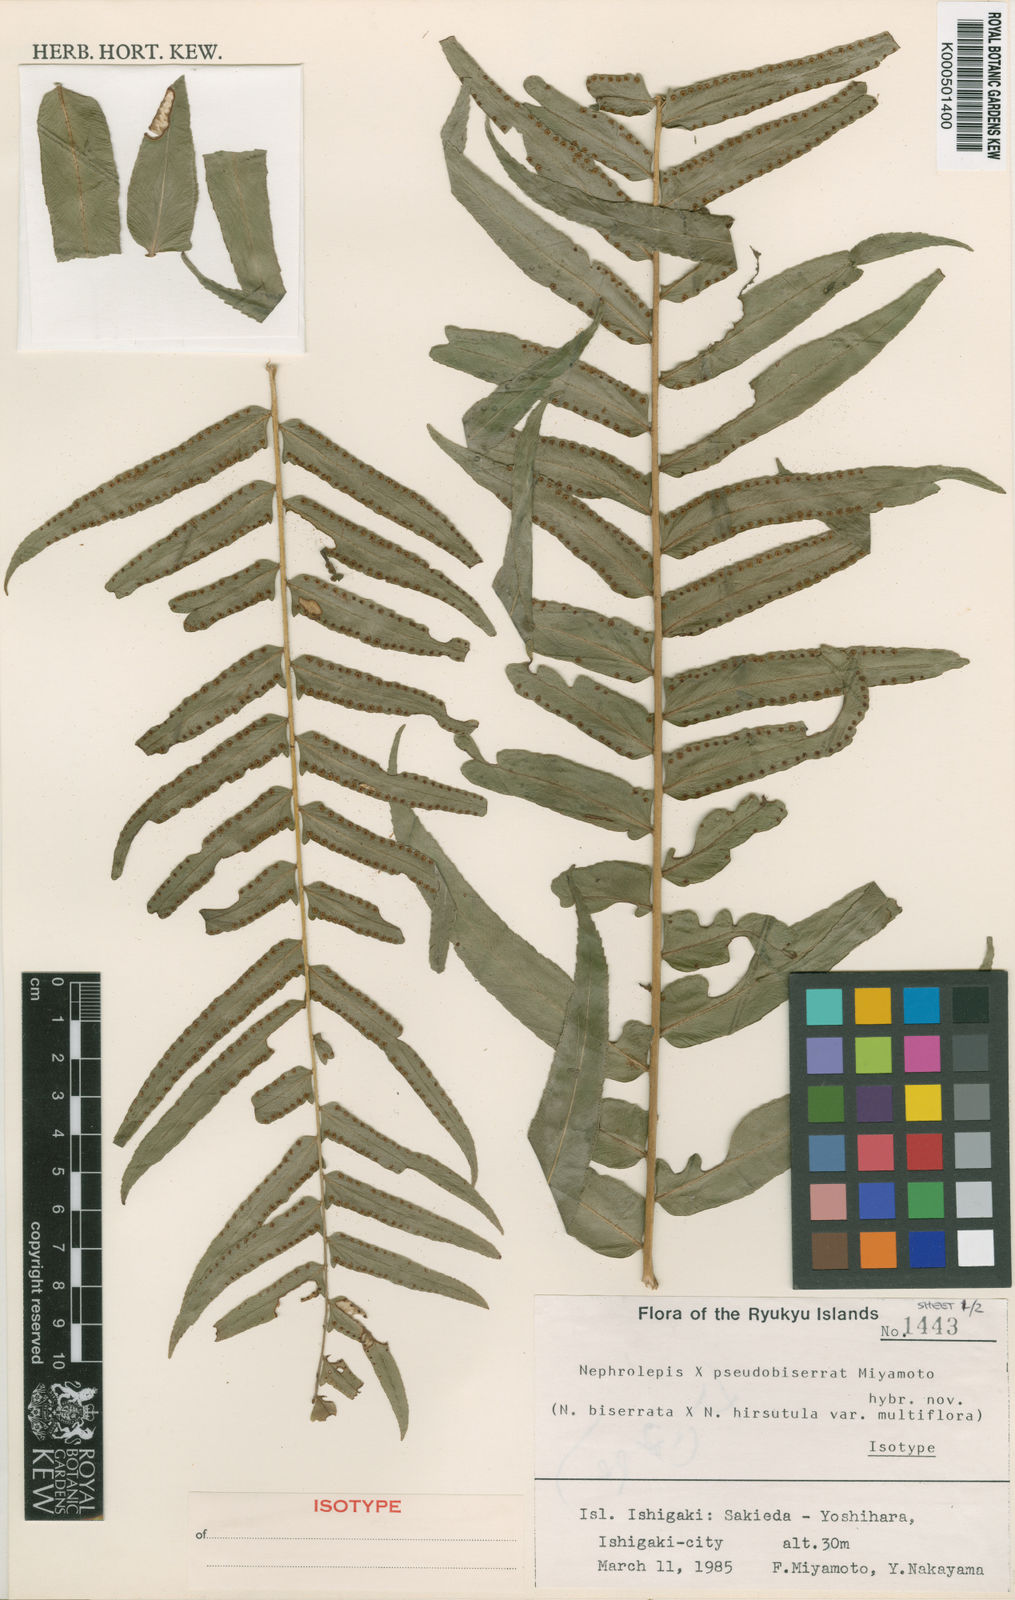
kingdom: Plantae
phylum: Tracheophyta
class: Polypodiopsida
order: Polypodiales
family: Nephrolepidaceae
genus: Nephrolepis
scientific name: Nephrolepis pseudobiserrata
